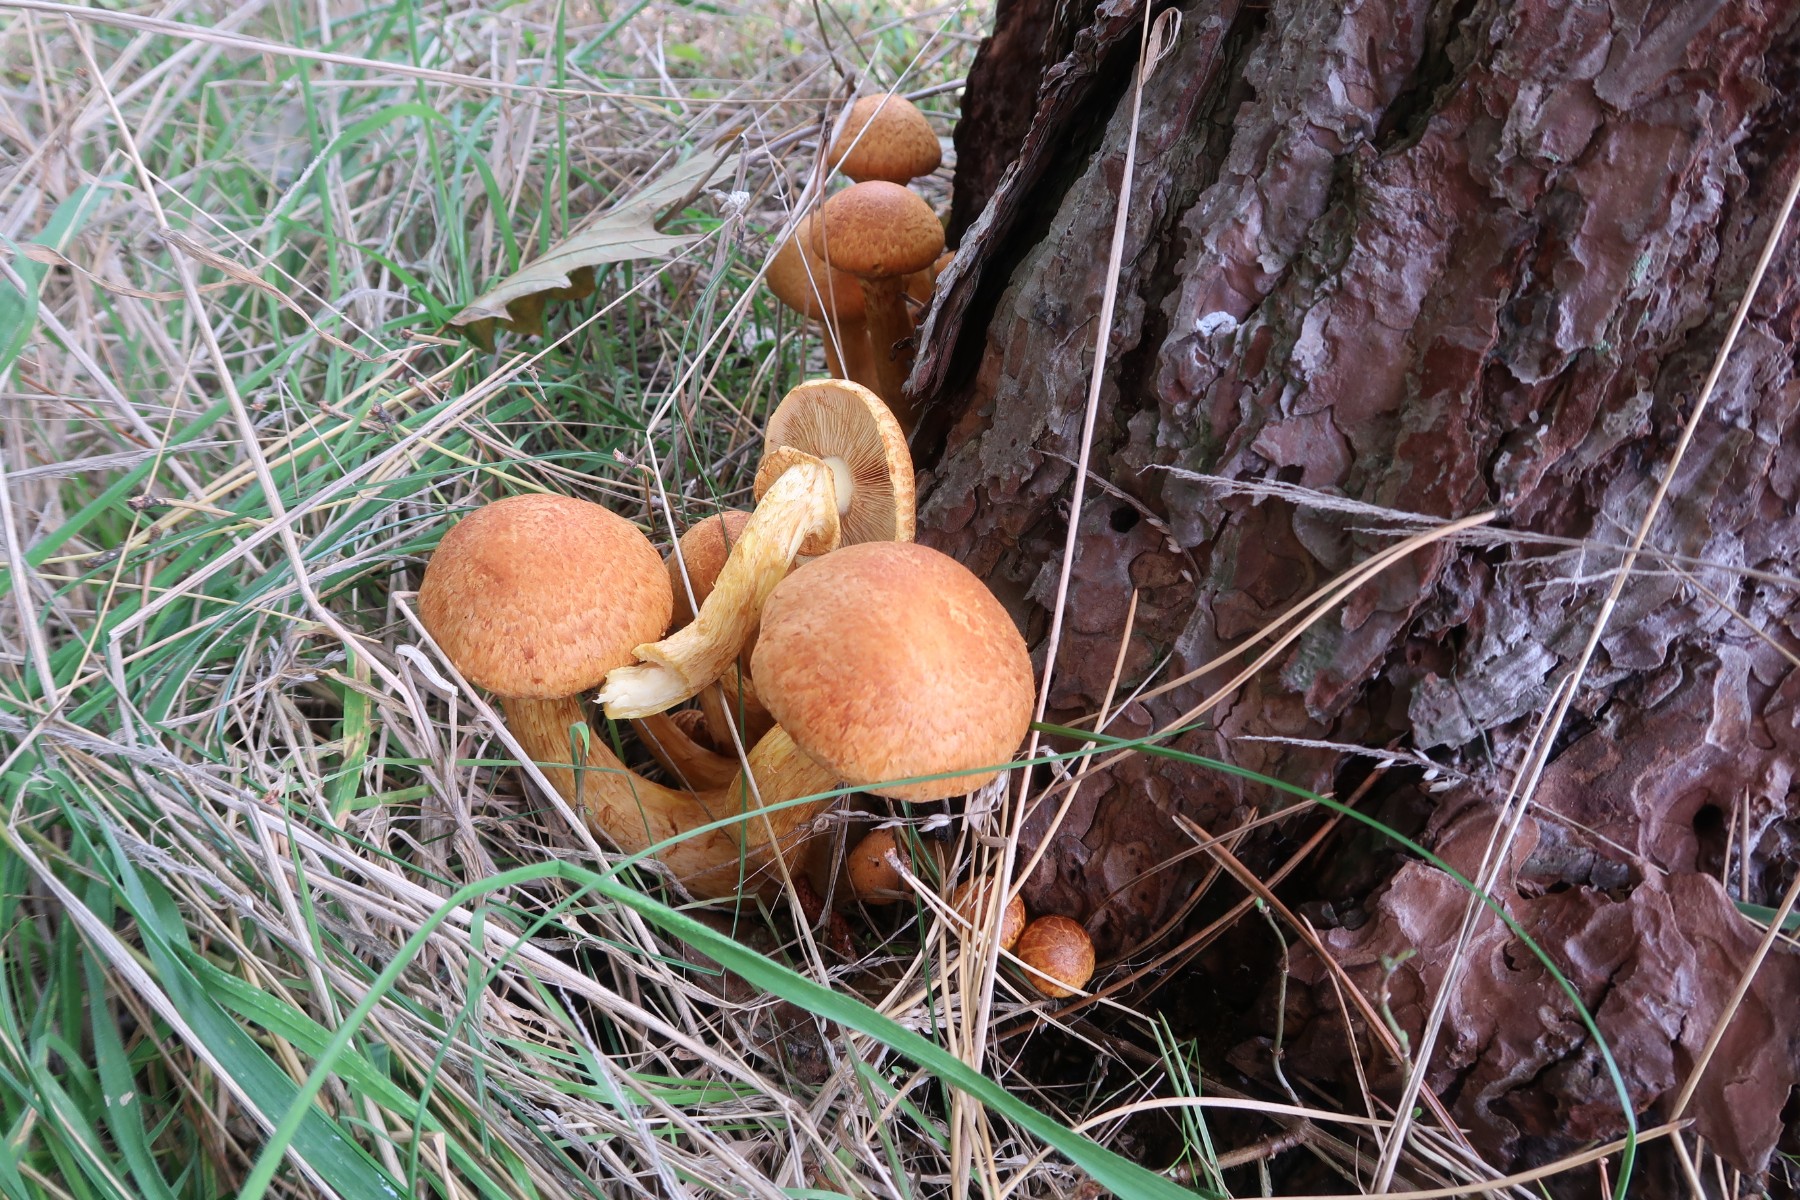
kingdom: Fungi
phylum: Basidiomycota
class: Agaricomycetes
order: Agaricales
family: Hymenogastraceae
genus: Gymnopilus
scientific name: Gymnopilus spectabilis
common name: fibret flammehat
